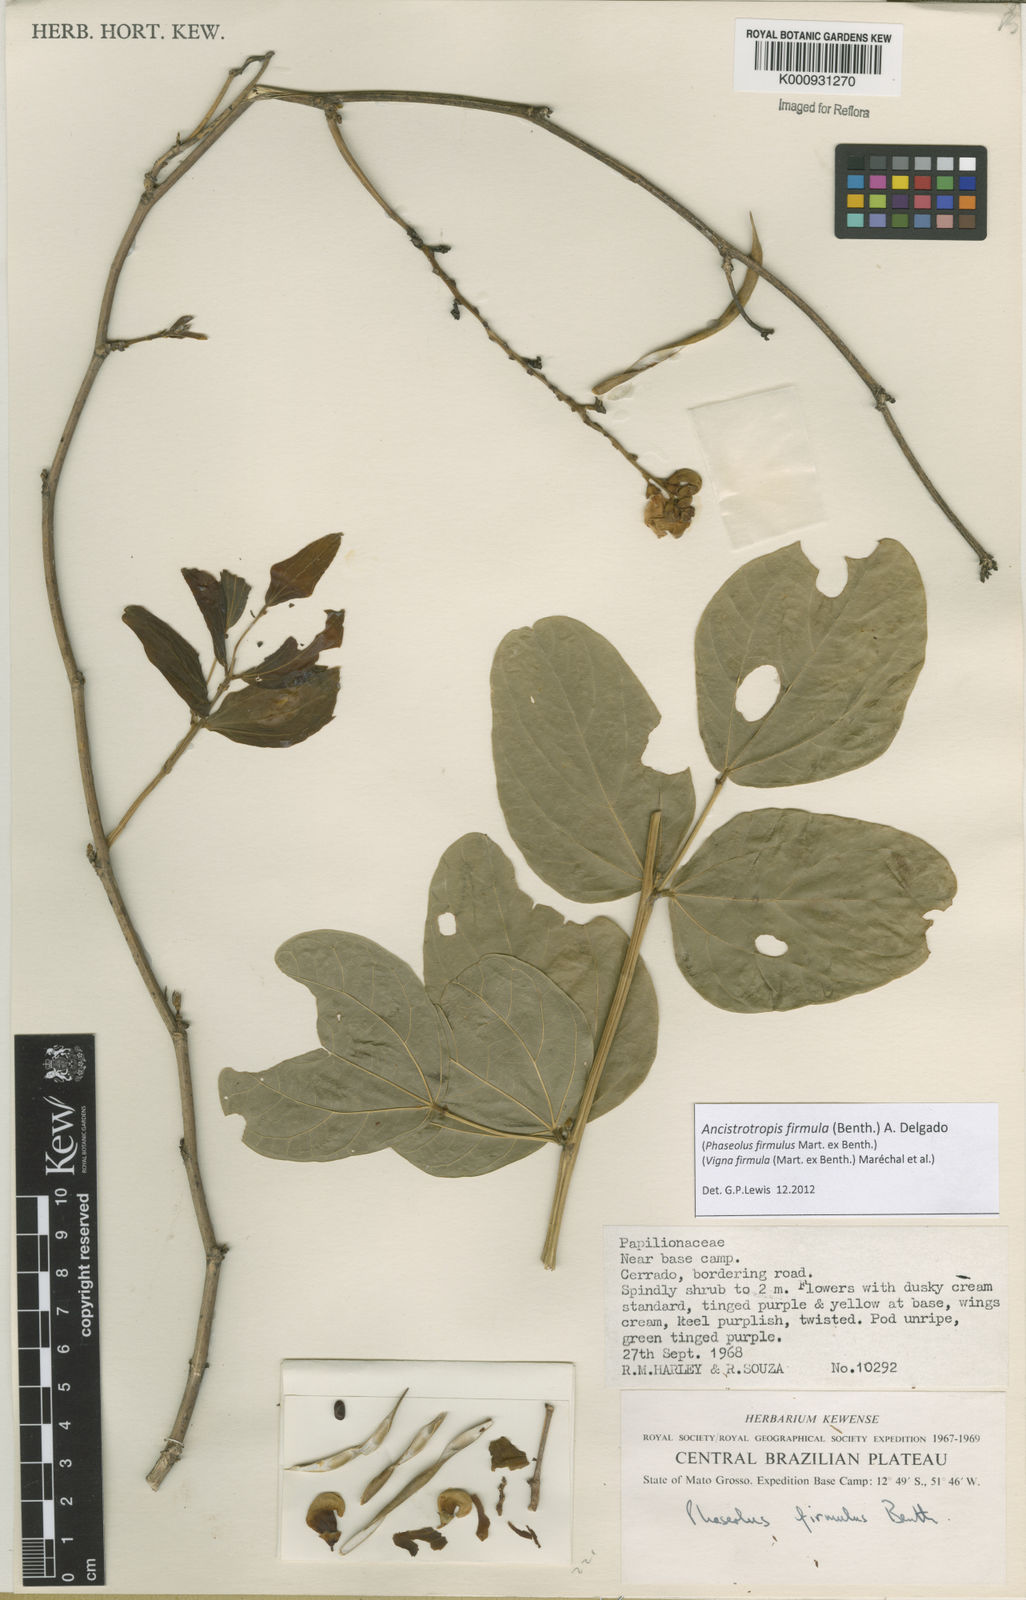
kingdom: Plantae
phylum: Tracheophyta
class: Magnoliopsida
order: Fabales
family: Fabaceae
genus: Ancistrotropis
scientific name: Ancistrotropis firmula
